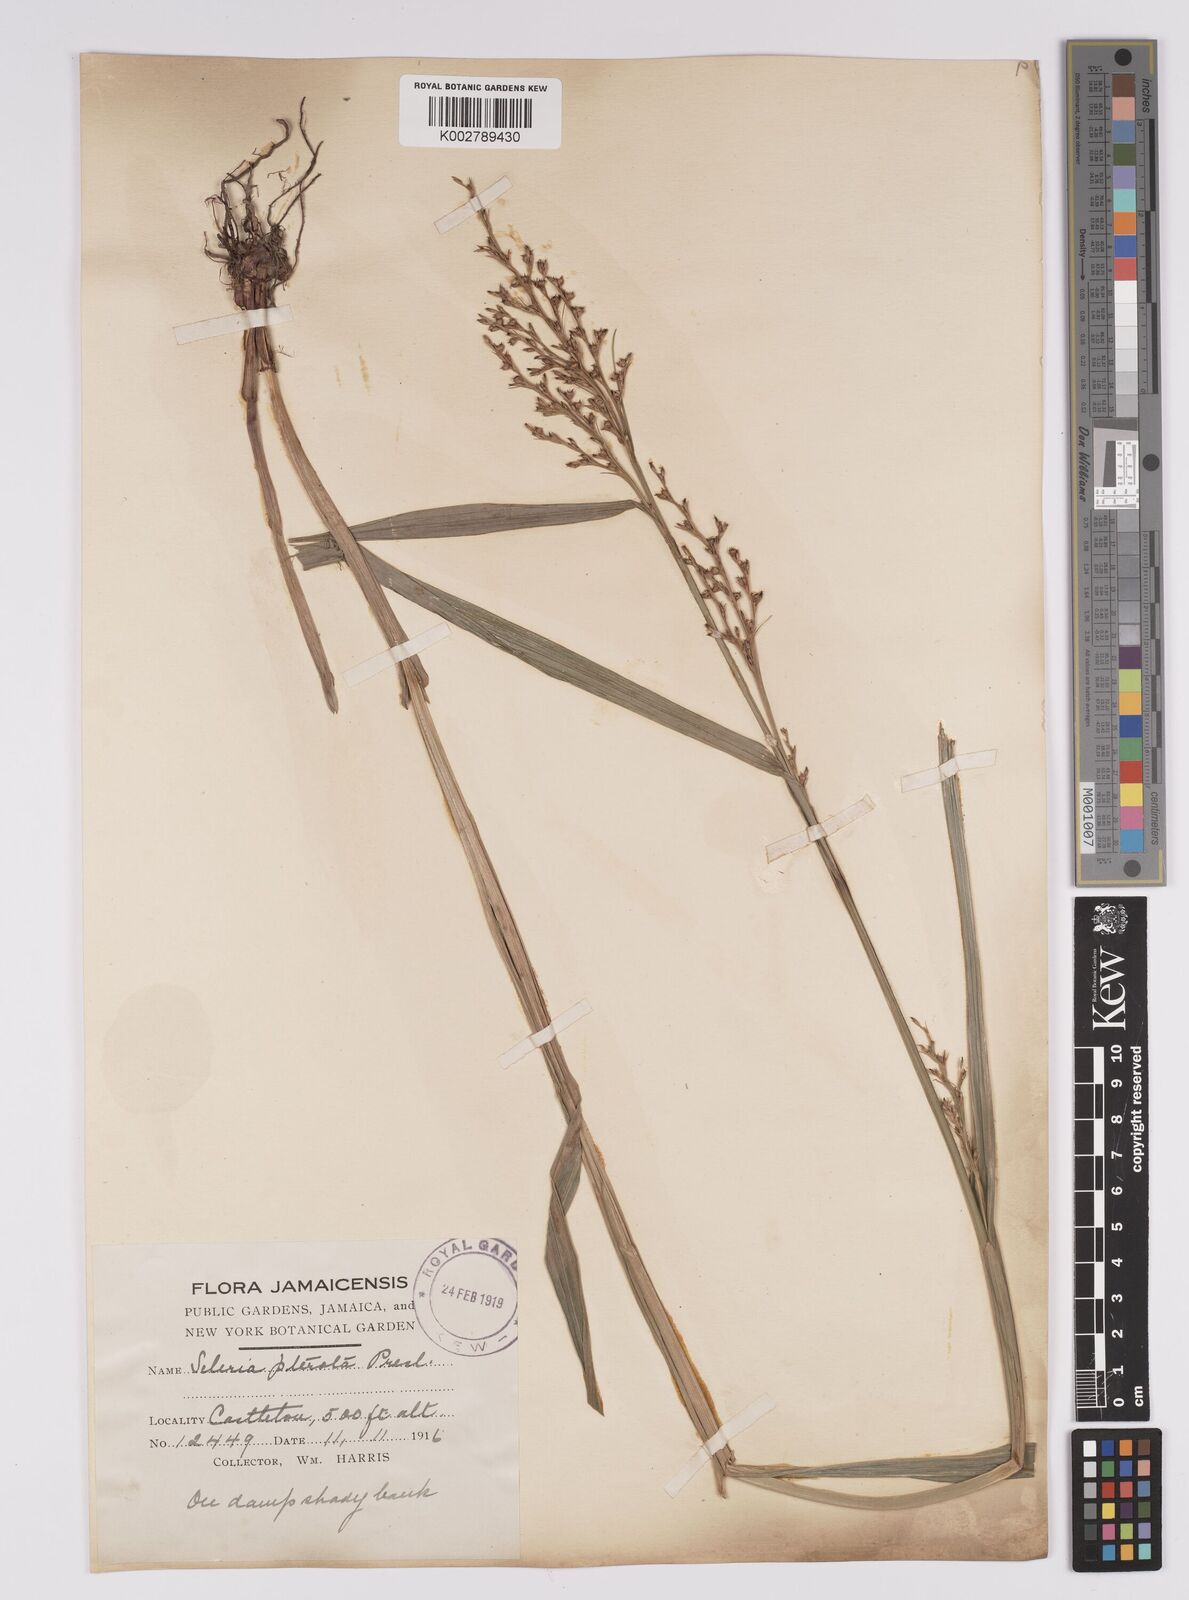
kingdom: Plantae
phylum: Tracheophyta
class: Liliopsida
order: Poales
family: Cyperaceae
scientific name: Cyperaceae
